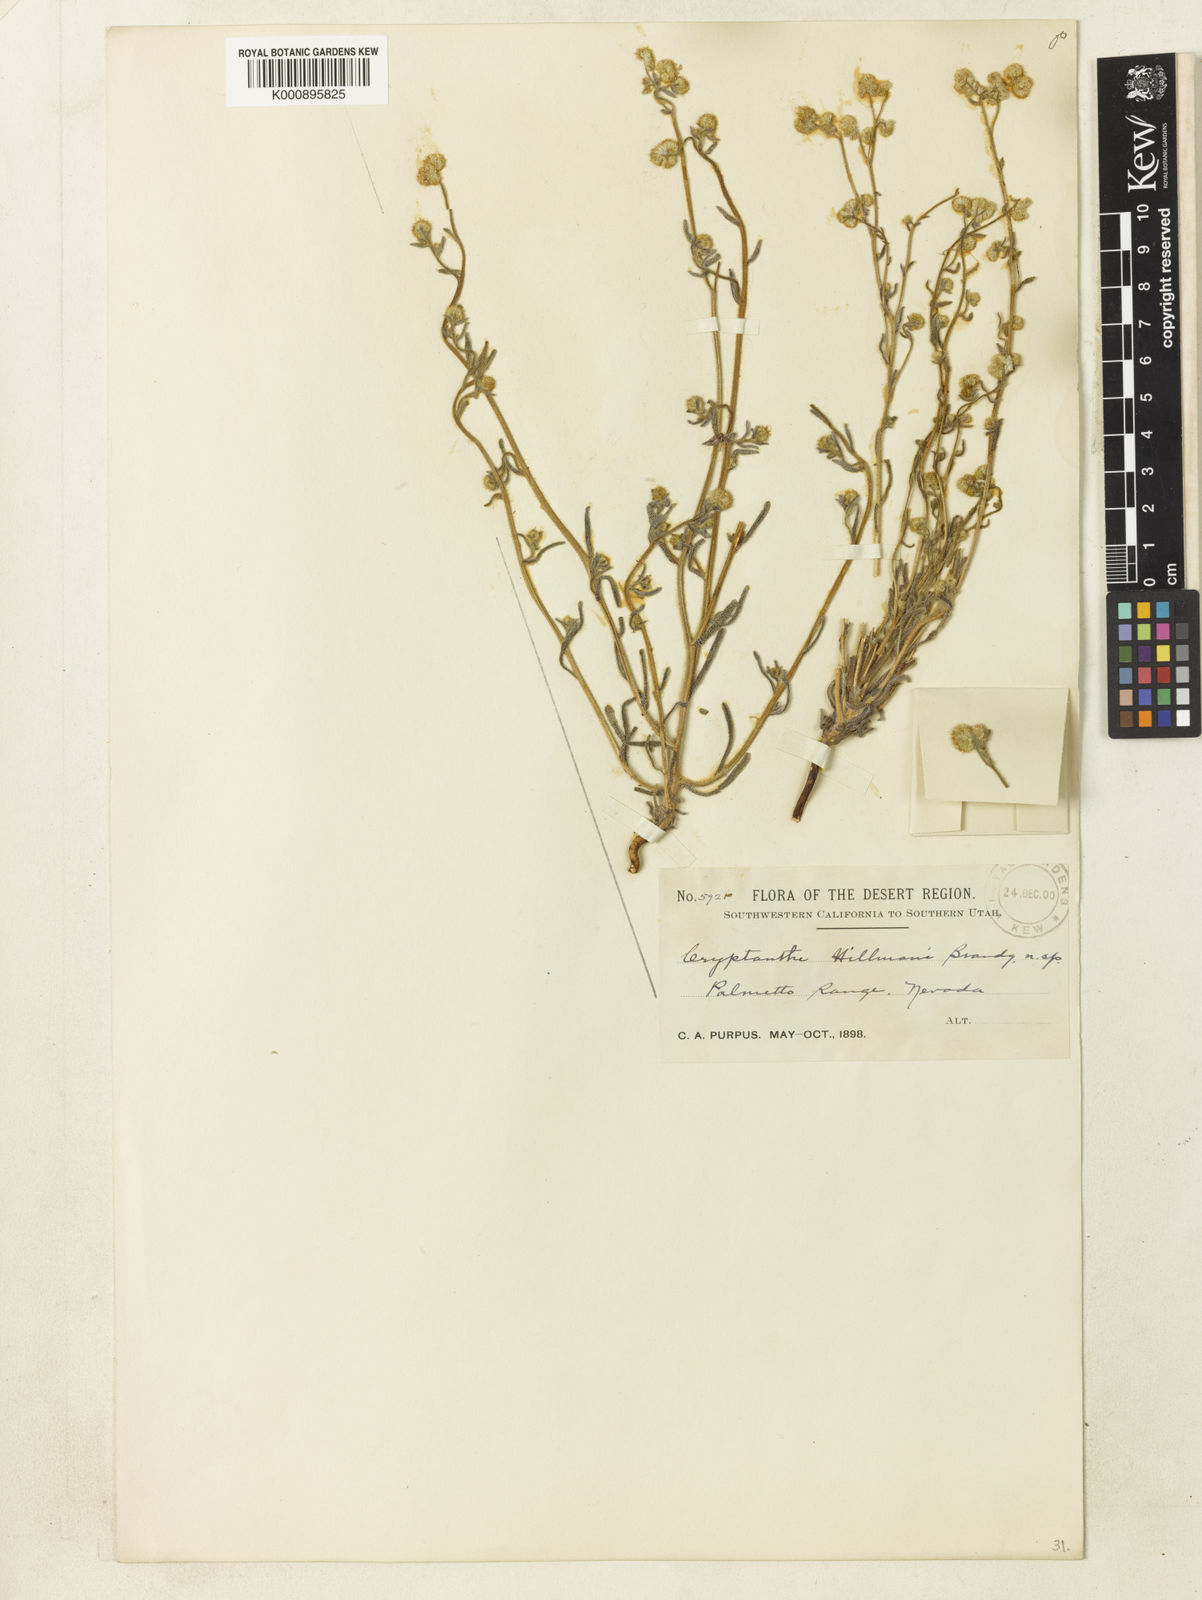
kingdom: Plantae
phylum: Tracheophyta
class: Magnoliopsida
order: Boraginales
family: Boraginaceae
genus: Cryptantha
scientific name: Cryptantha gracilis
